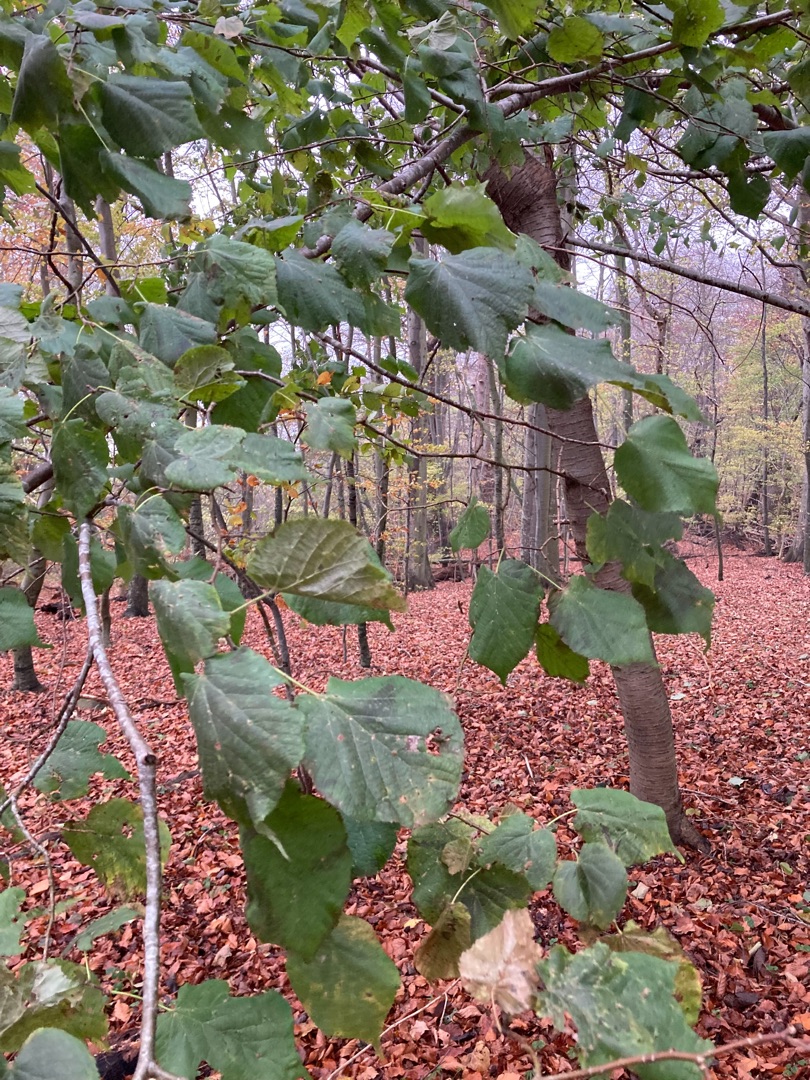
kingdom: Plantae
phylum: Tracheophyta
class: Magnoliopsida
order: Malvales
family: Malvaceae
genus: Tilia
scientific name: Tilia
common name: Lindeslægten
